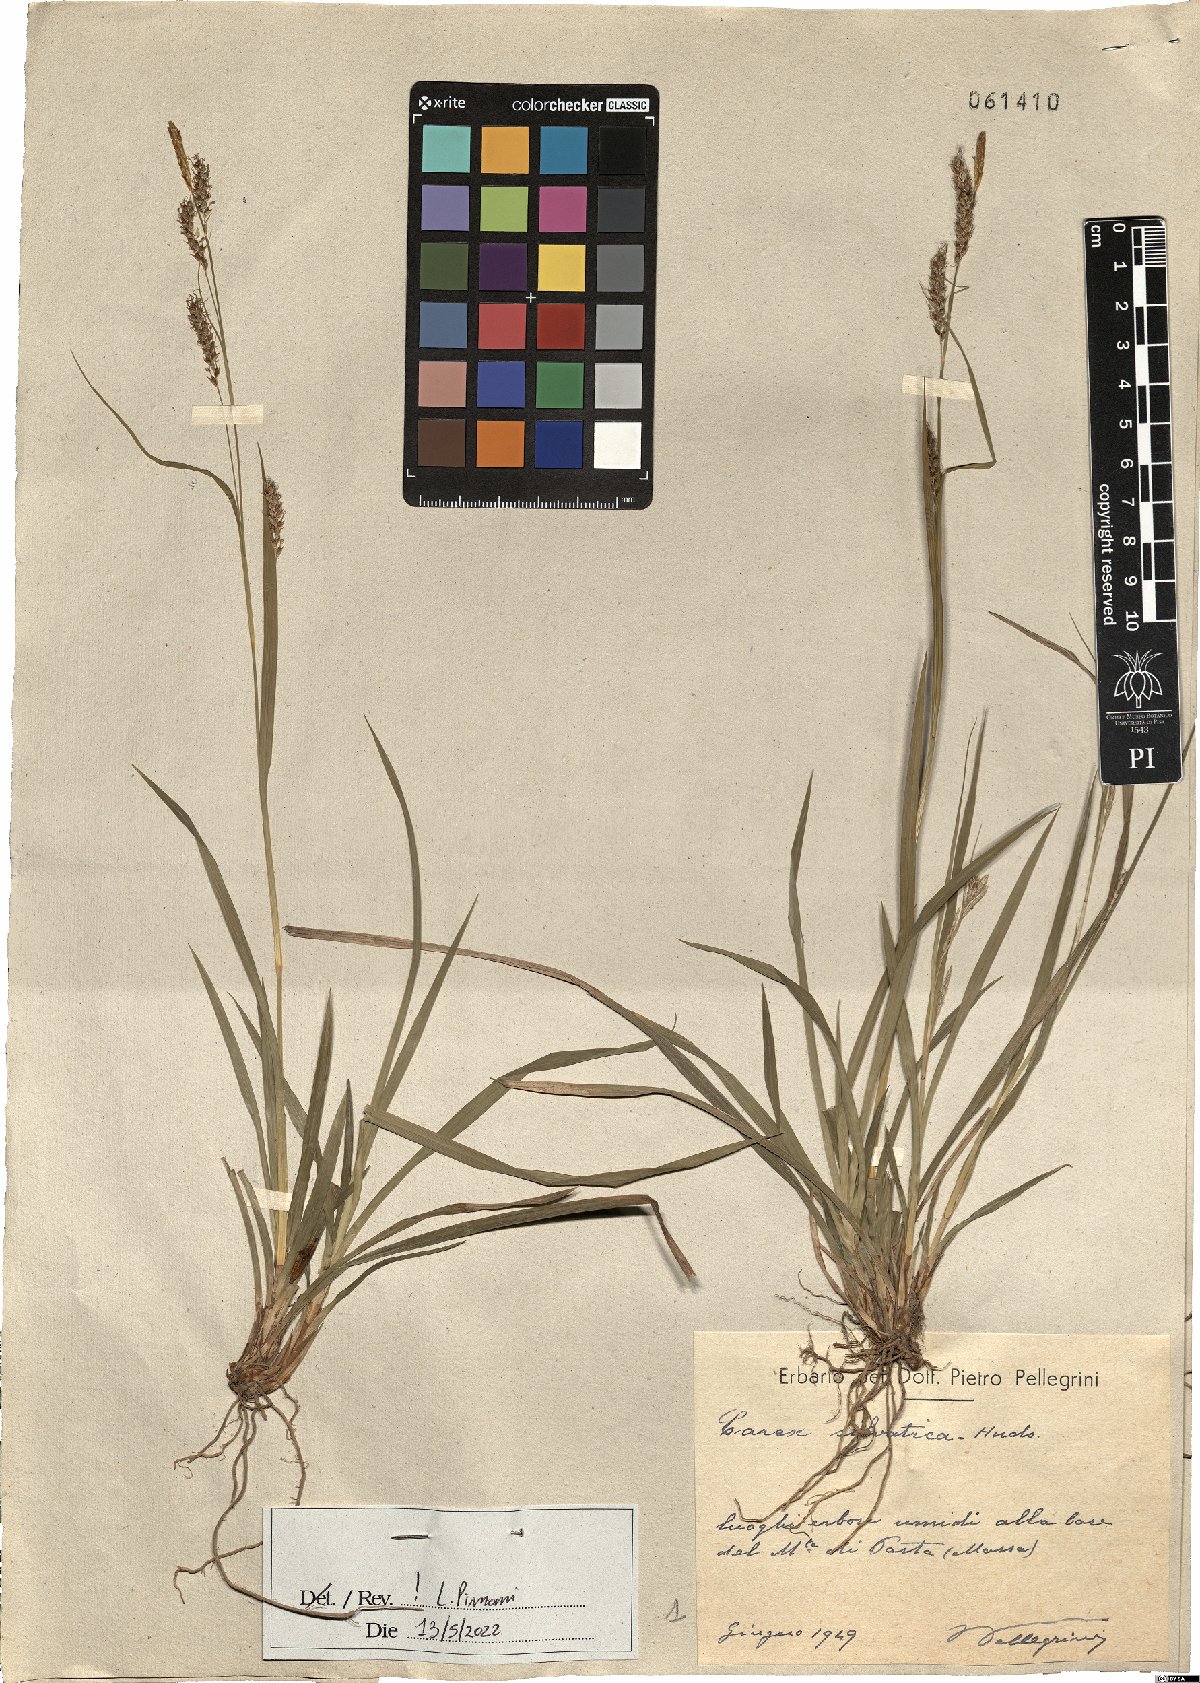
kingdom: Plantae
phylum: Tracheophyta
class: Liliopsida
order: Poales
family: Cyperaceae
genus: Carex
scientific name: Carex sylvatica
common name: Wood-sedge
